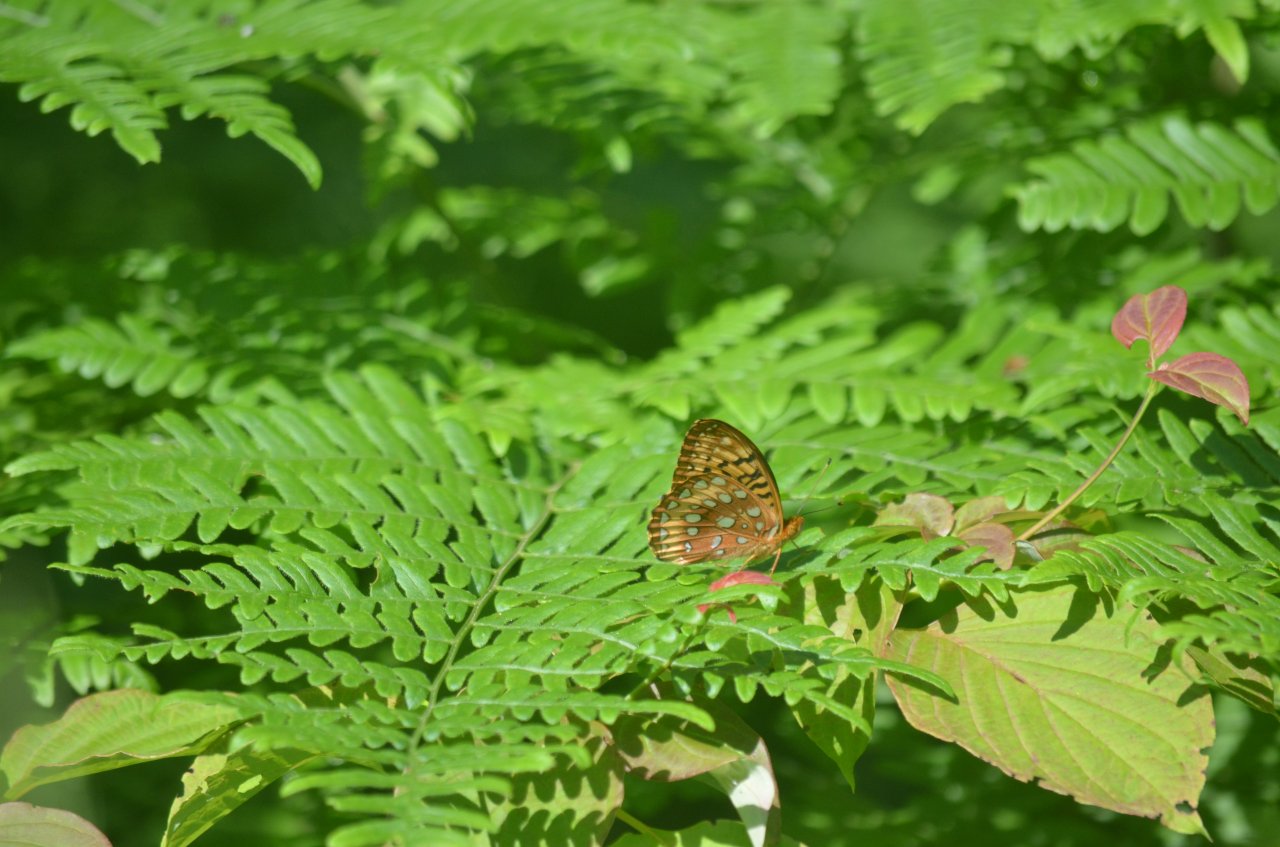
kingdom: Animalia
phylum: Arthropoda
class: Insecta
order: Lepidoptera
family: Nymphalidae
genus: Speyeria
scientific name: Speyeria cybele
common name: Great Spangled Fritillary
